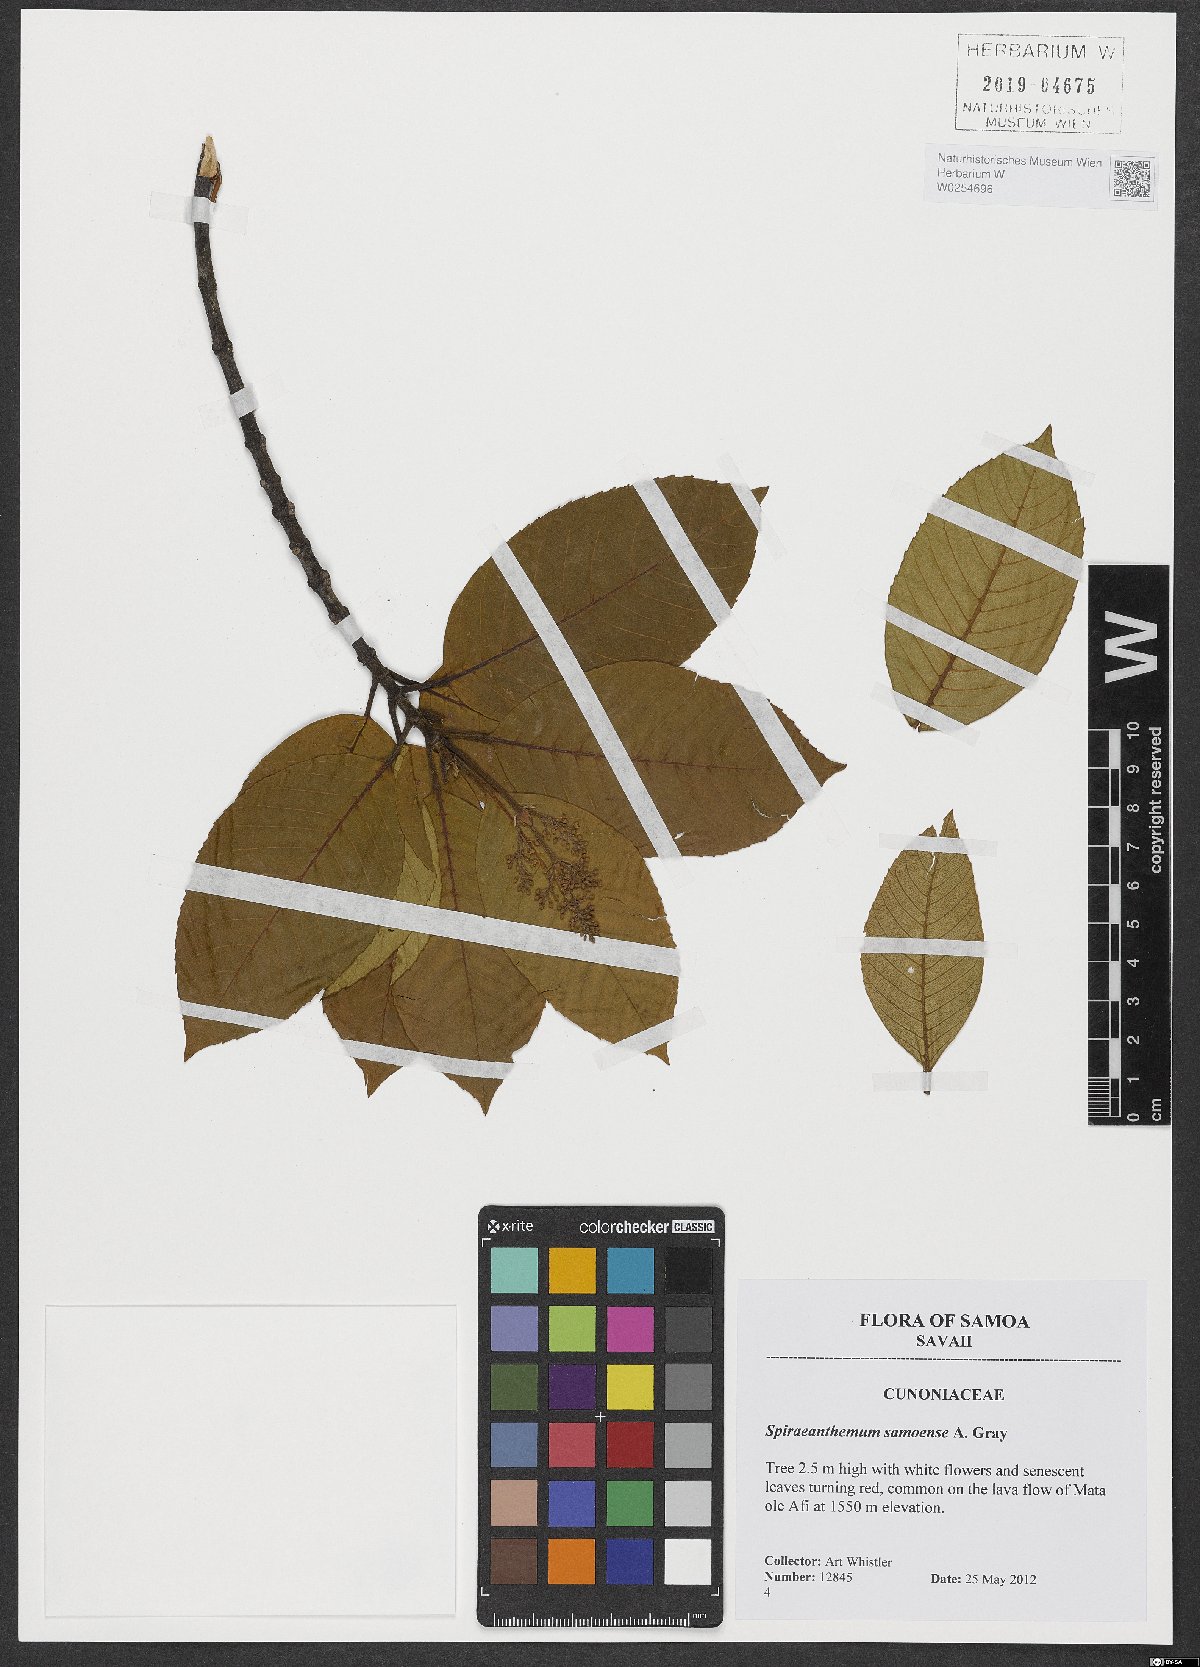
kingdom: Plantae
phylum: Tracheophyta
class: Magnoliopsida
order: Oxalidales
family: Cunoniaceae
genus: Spiraeanthemum
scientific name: Spiraeanthemum samoense
